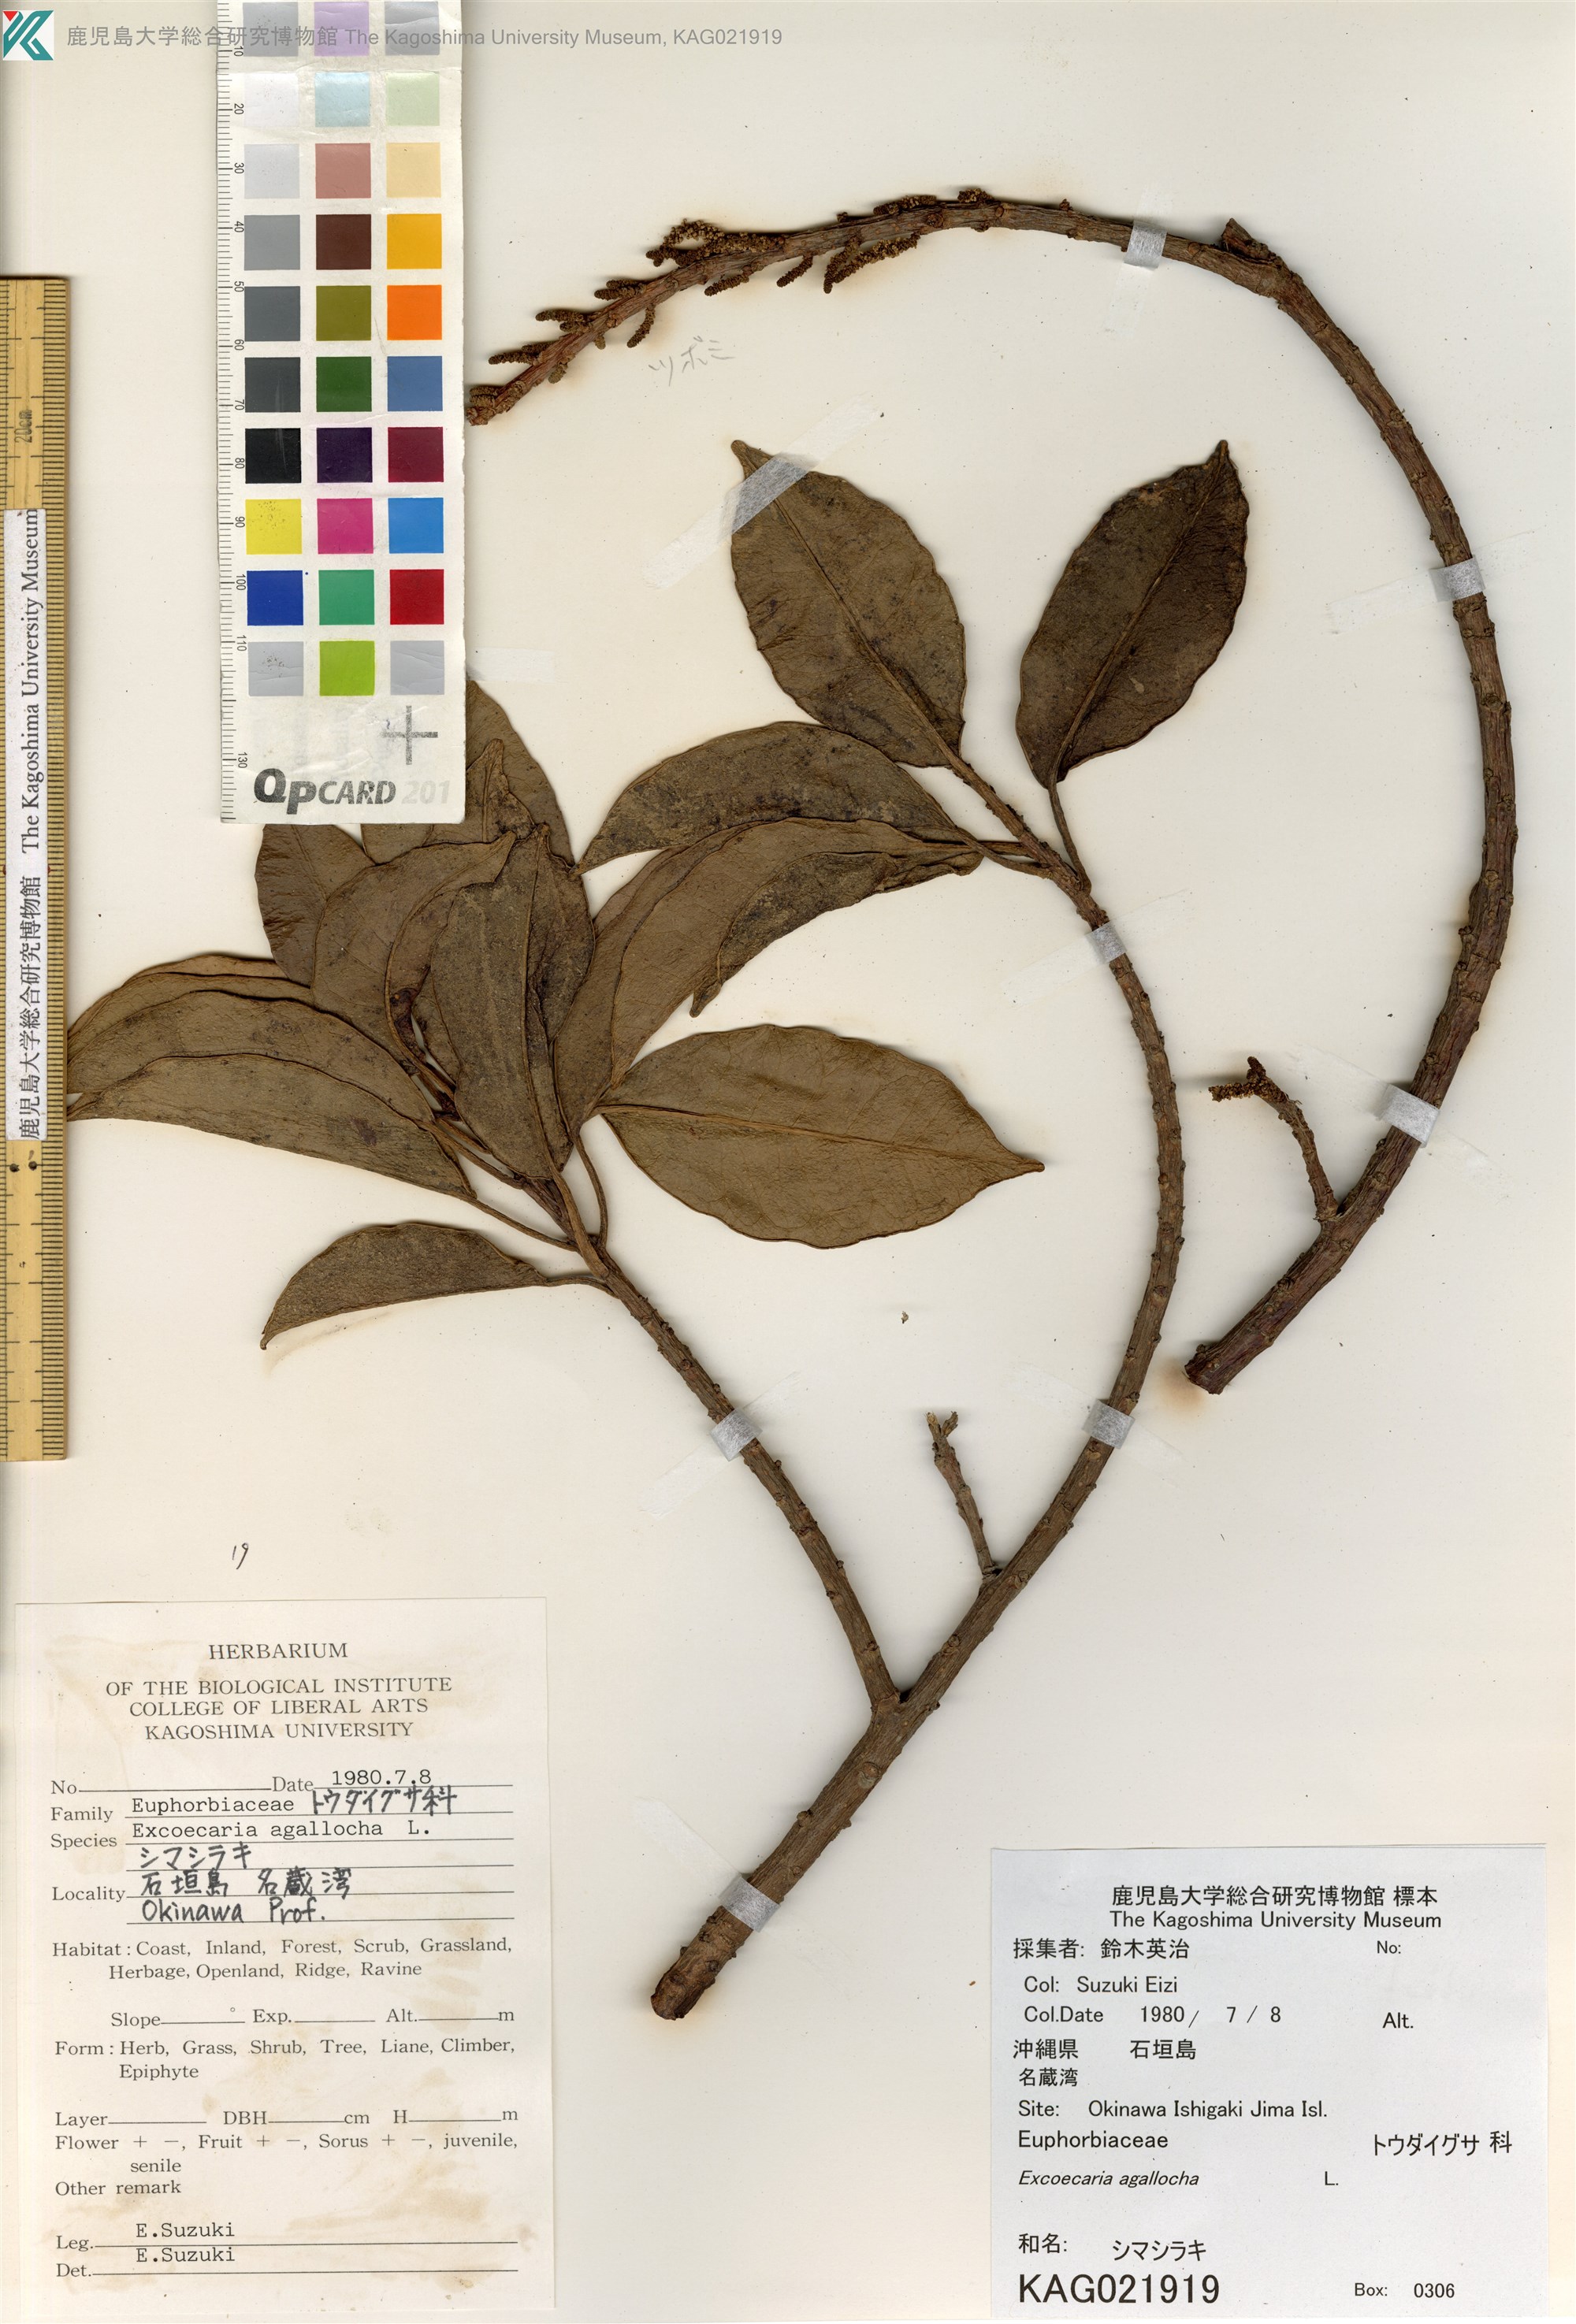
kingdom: Plantae
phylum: Tracheophyta
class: Magnoliopsida
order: Malpighiales
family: Euphorbiaceae
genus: Excoecaria
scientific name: Excoecaria agallocha
